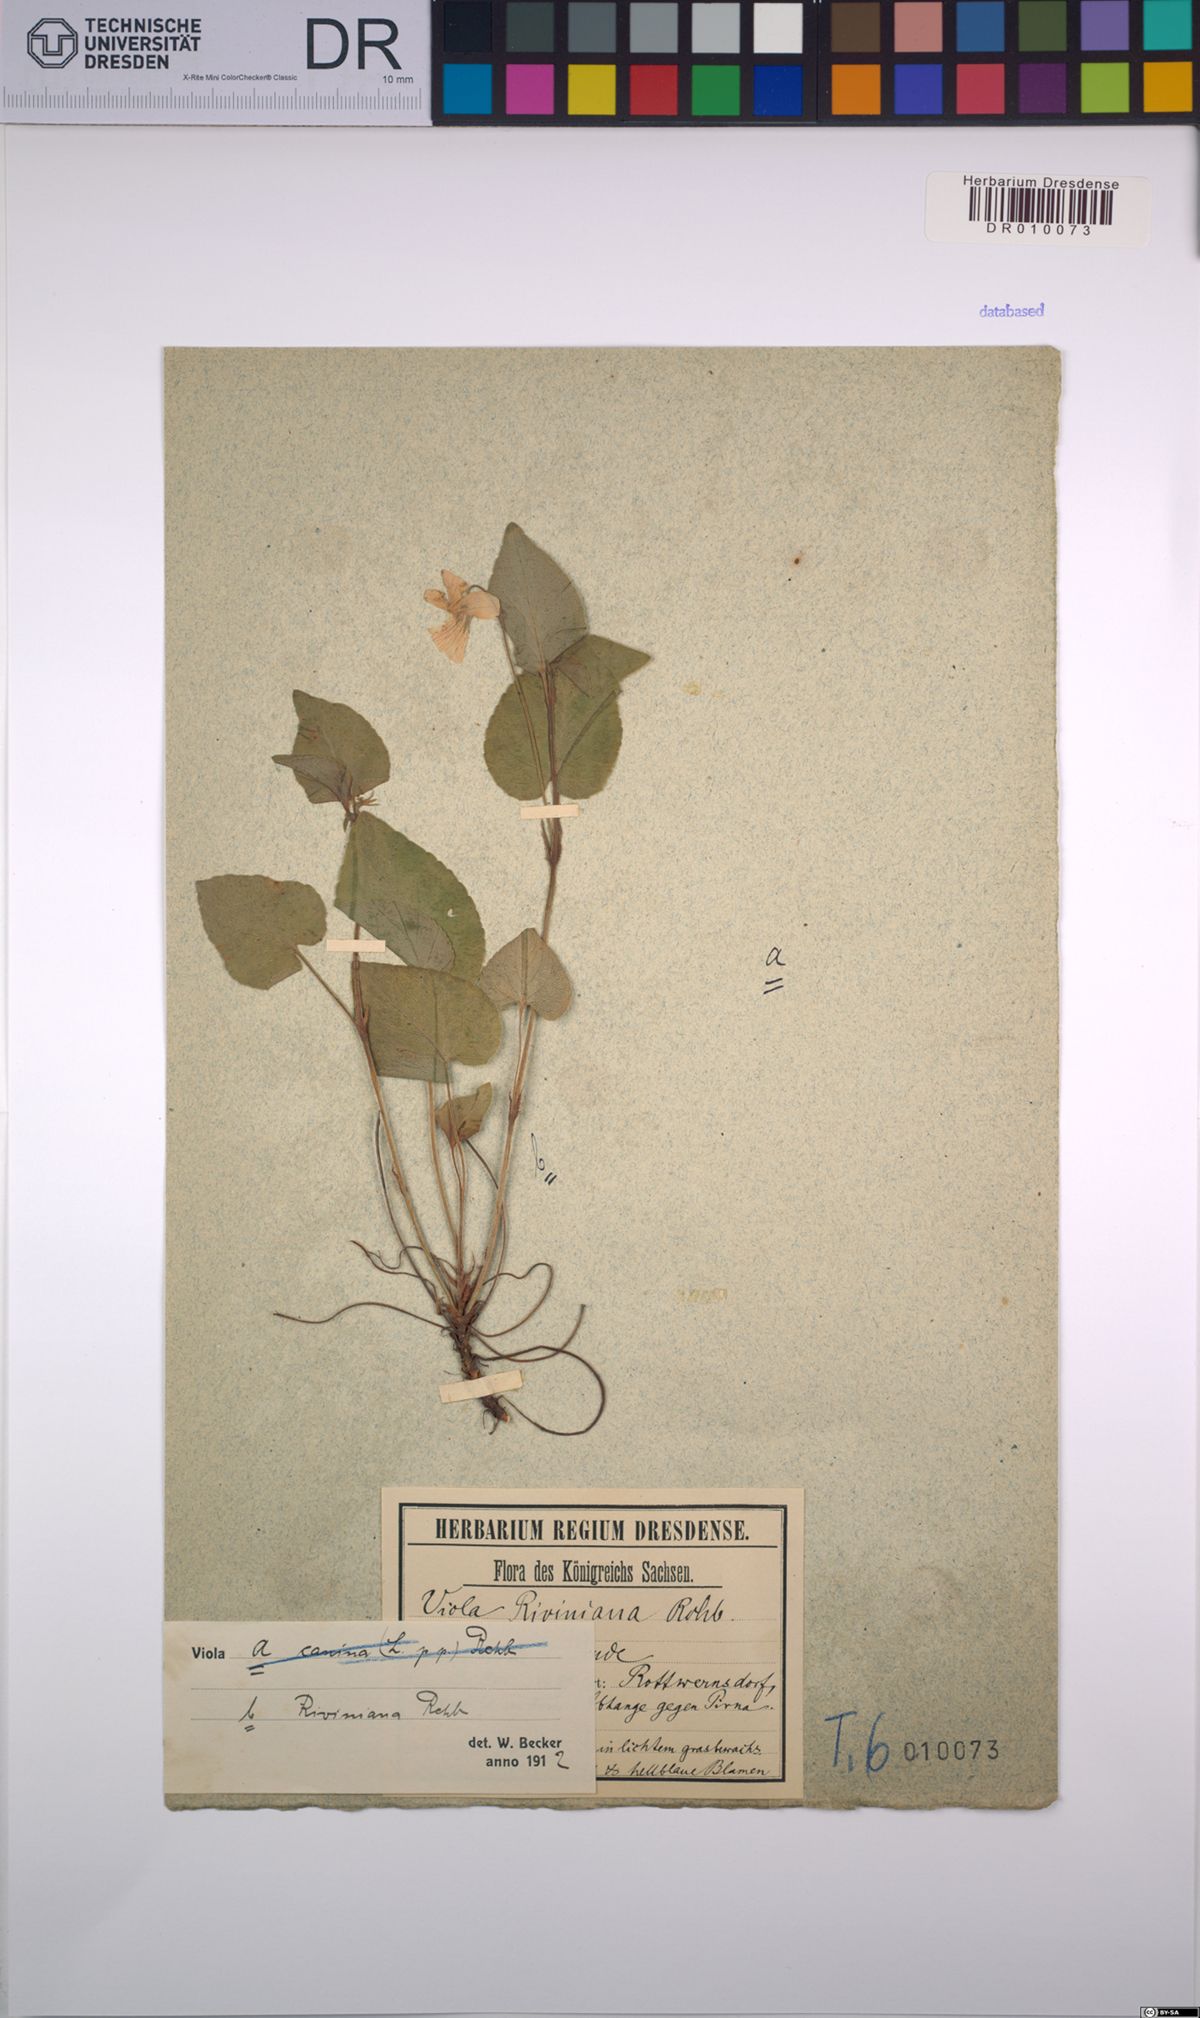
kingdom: Plantae
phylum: Tracheophyta
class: Magnoliopsida
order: Malpighiales
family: Violaceae
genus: Viola
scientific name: Viola riviniana
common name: Common dog-violet
